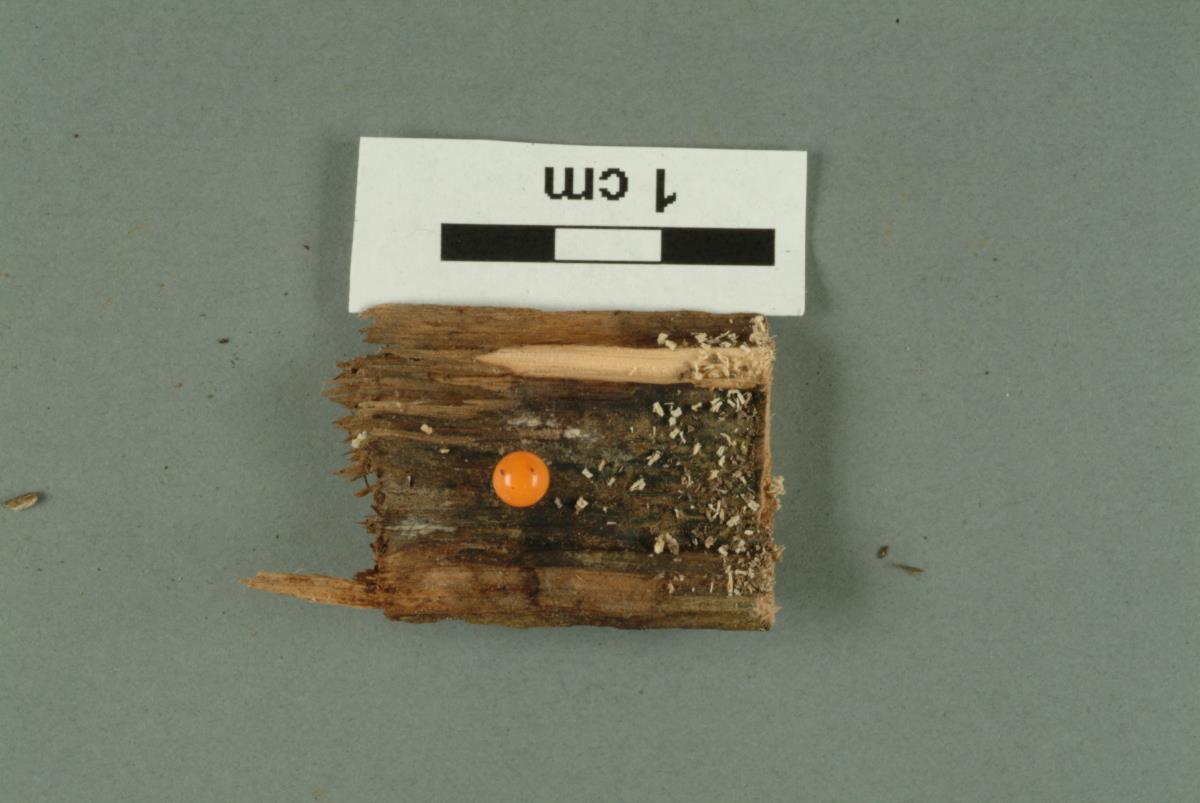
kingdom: Fungi
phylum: Ascomycota
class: Sordariomycetes
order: Hypocreales
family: Bionectriaceae
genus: Clonostachys
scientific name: Clonostachys
